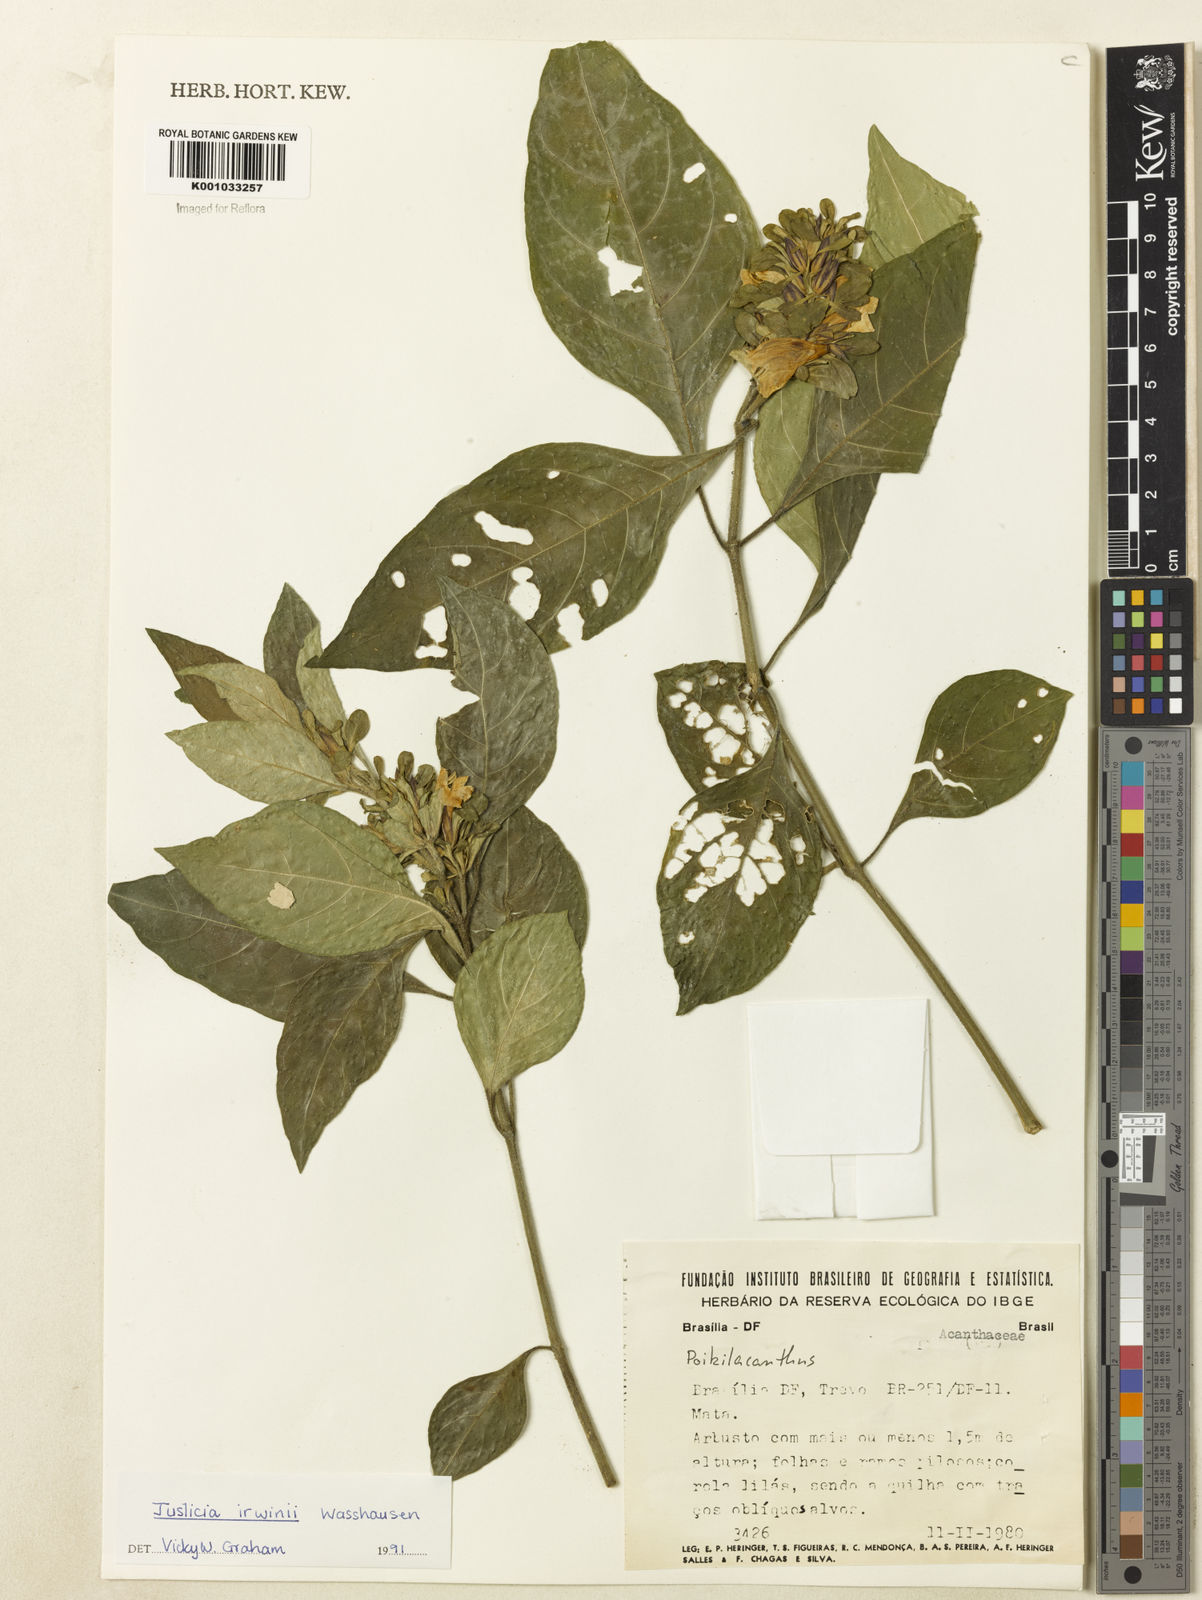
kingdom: Plantae
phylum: Tracheophyta
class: Magnoliopsida
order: Lamiales
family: Acanthaceae
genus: Justicia
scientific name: Justicia irwinii
